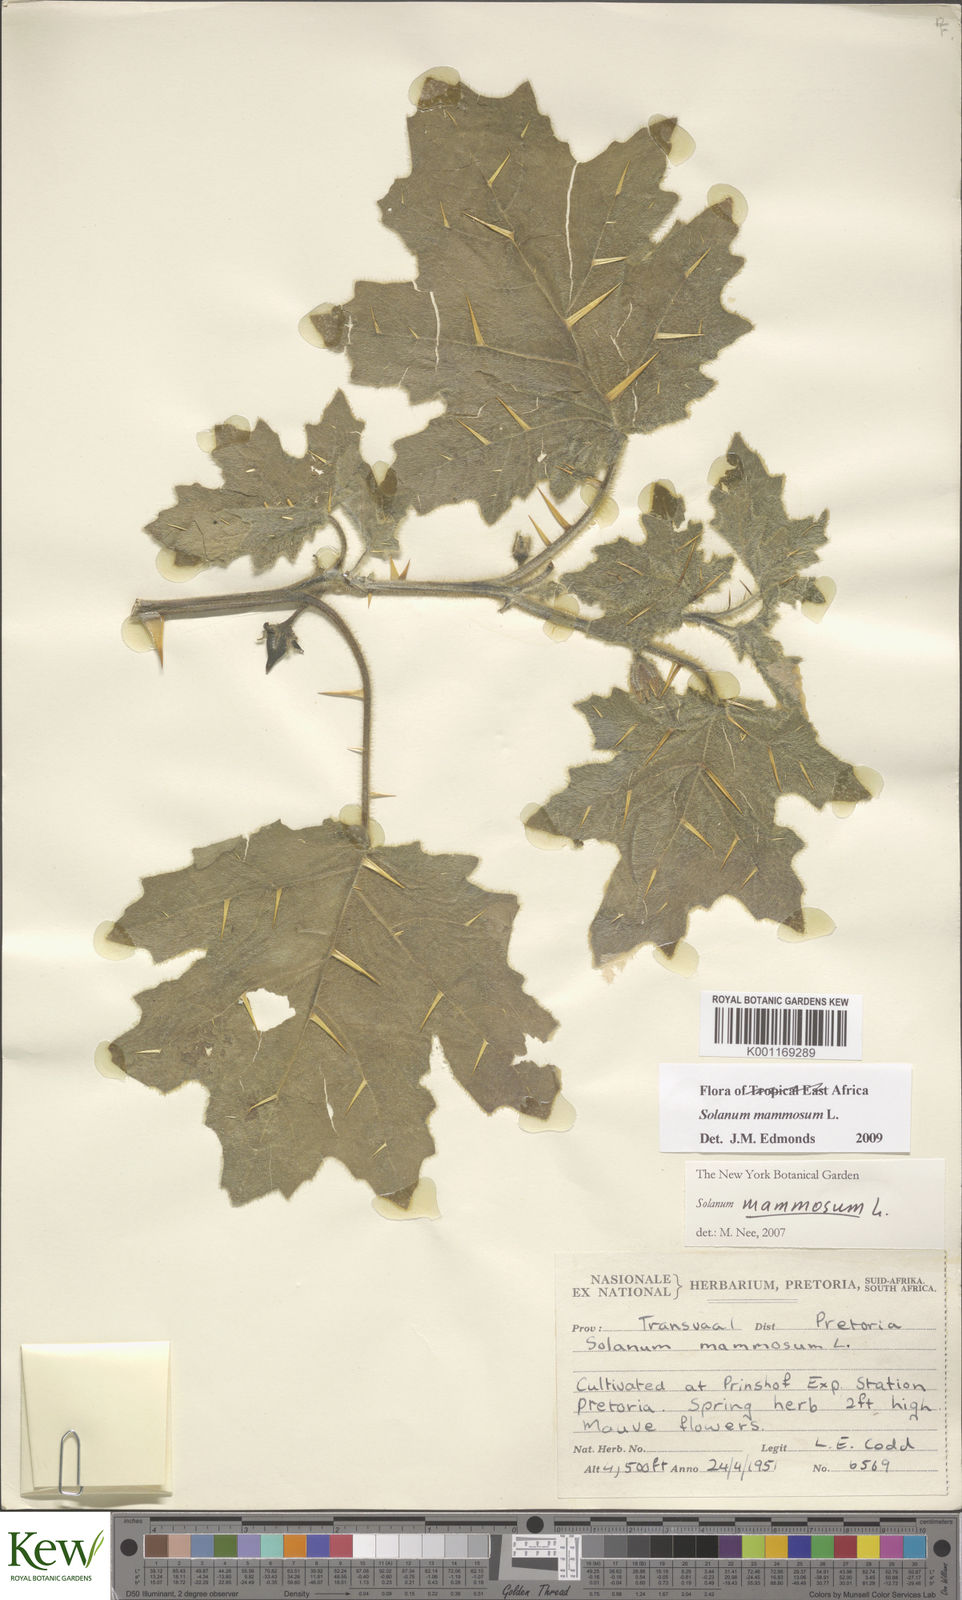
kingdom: Plantae
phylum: Tracheophyta
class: Magnoliopsida
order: Solanales
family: Solanaceae
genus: Solanum
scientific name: Solanum mammosum
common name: Nipple fruit
